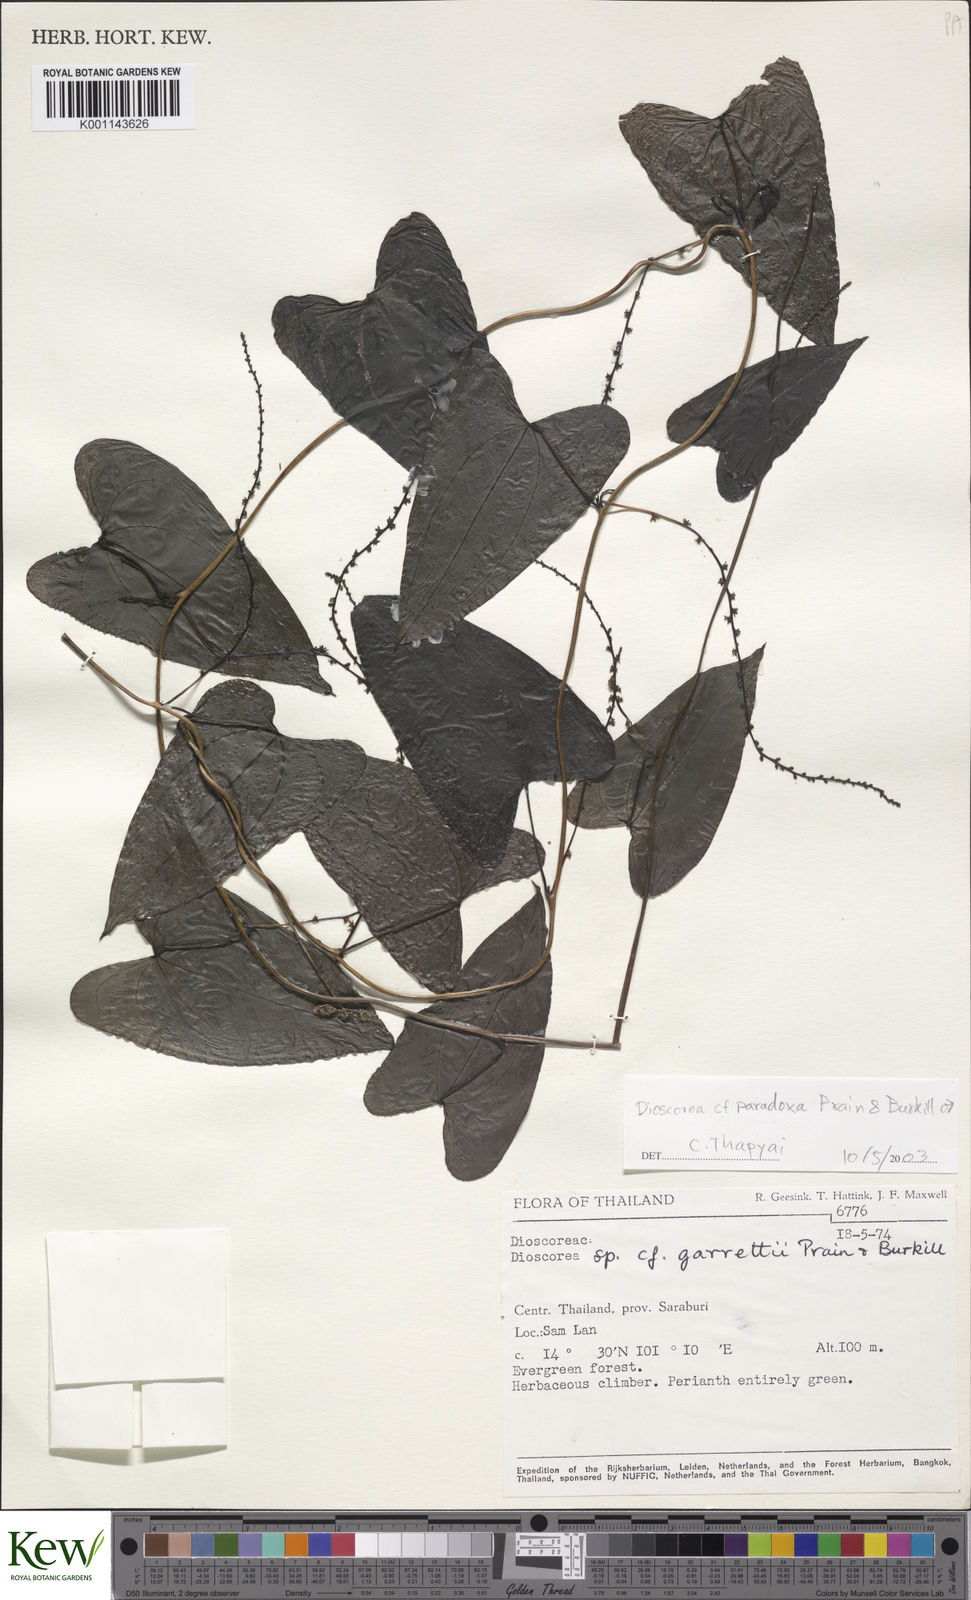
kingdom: Plantae
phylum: Tracheophyta
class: Liliopsida
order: Dioscoreales
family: Dioscoreaceae
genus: Dioscorea
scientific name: Dioscorea paradoxa
